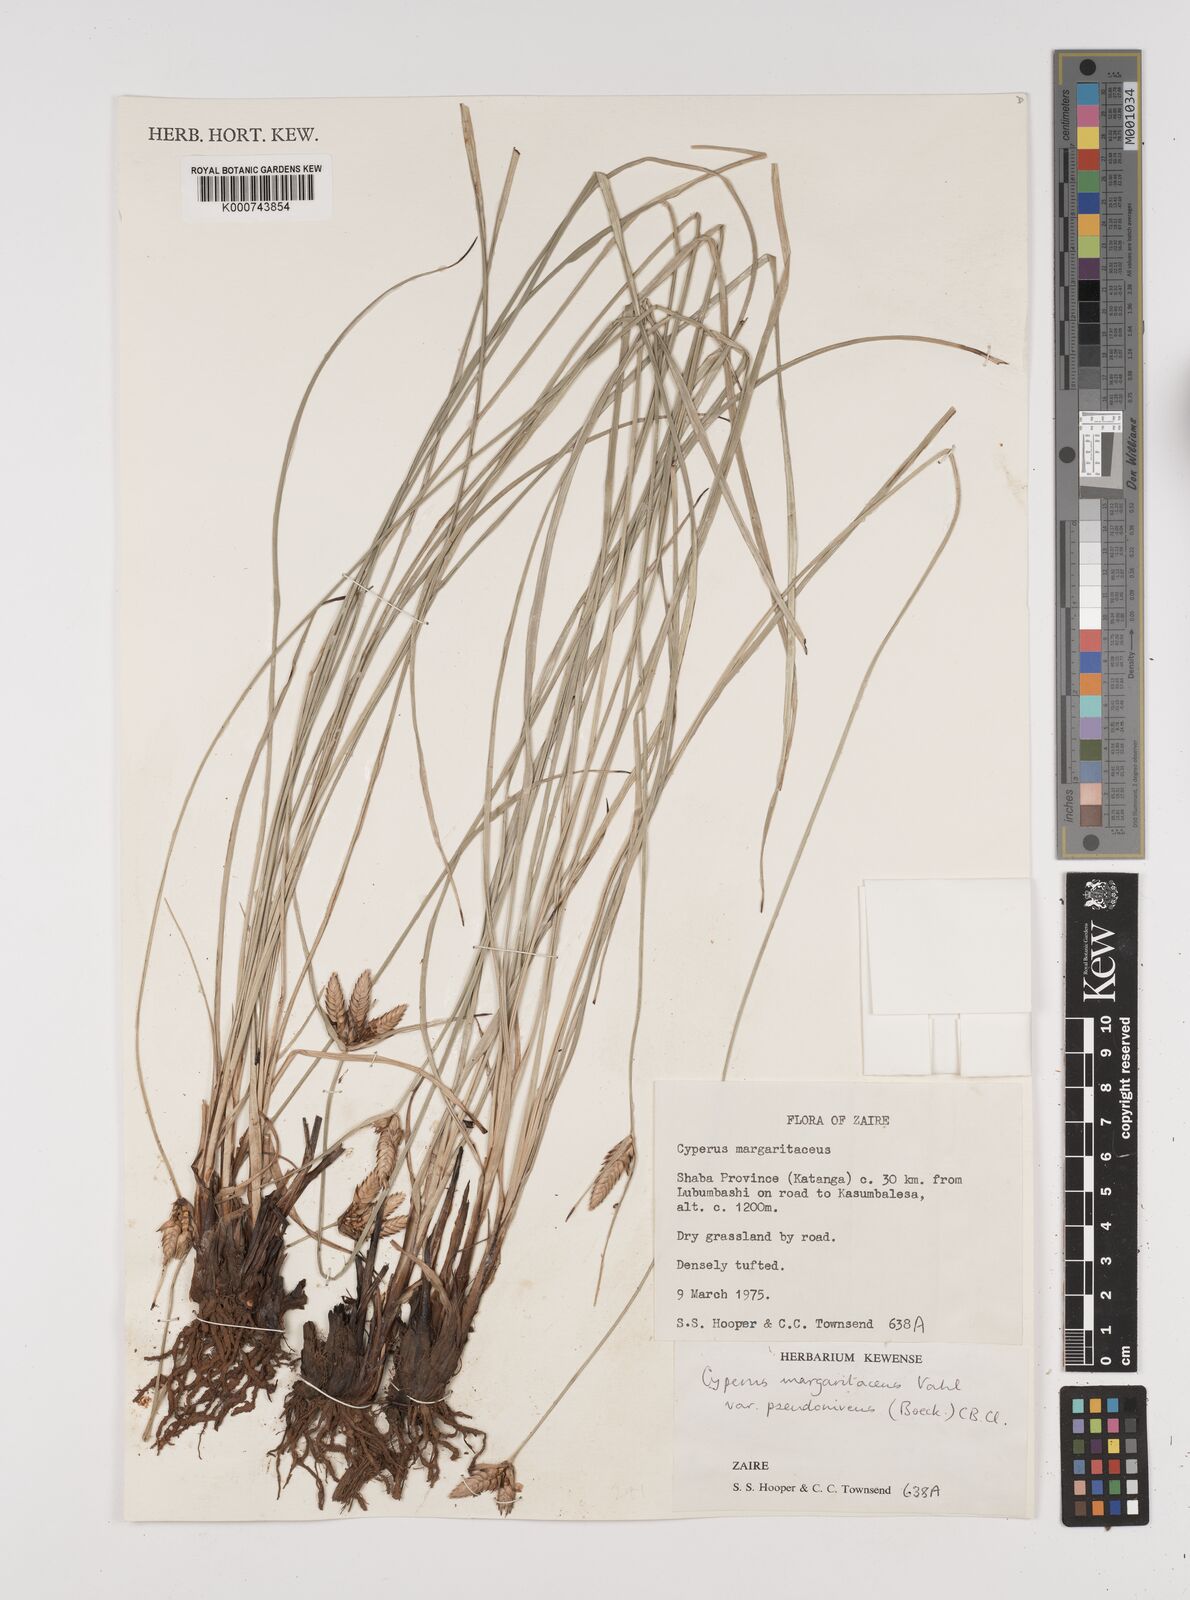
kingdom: Plantae
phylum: Tracheophyta
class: Liliopsida
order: Poales
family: Cyperaceae
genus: Cyperus
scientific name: Cyperus margaritaceus
